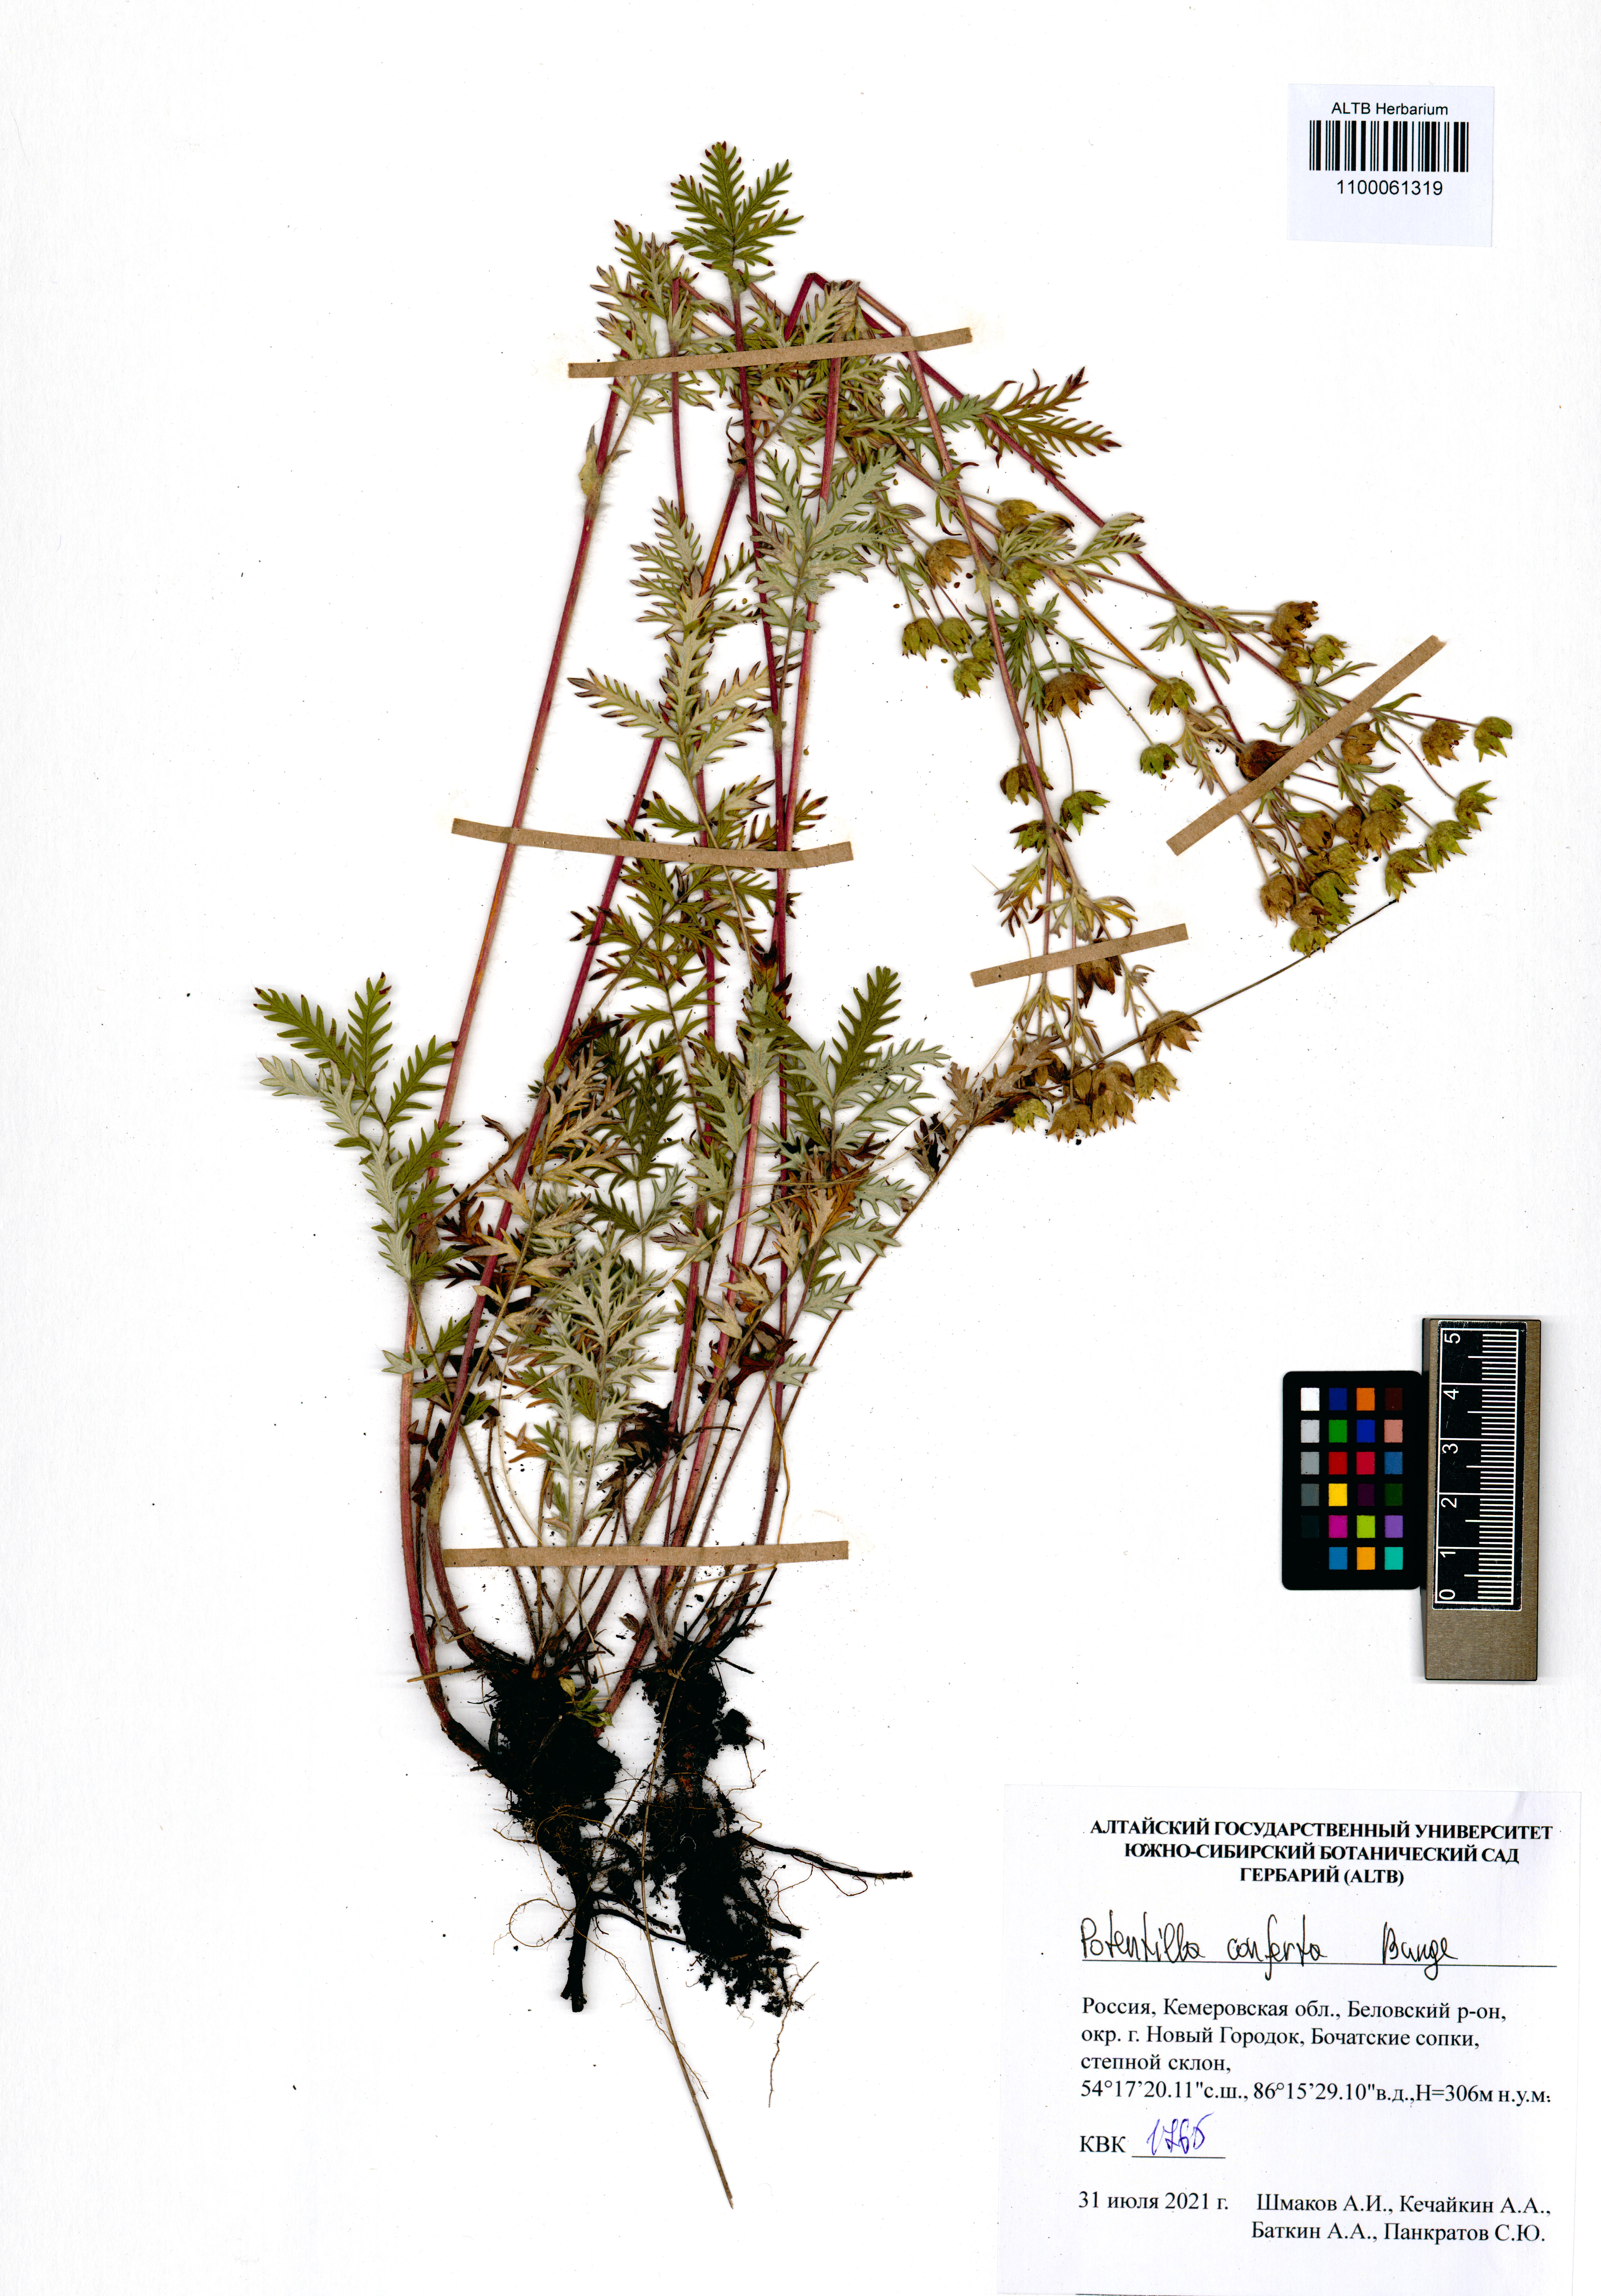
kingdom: Plantae
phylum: Tracheophyta
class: Magnoliopsida
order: Rosales
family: Rosaceae
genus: Potentilla
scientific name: Potentilla conferta
